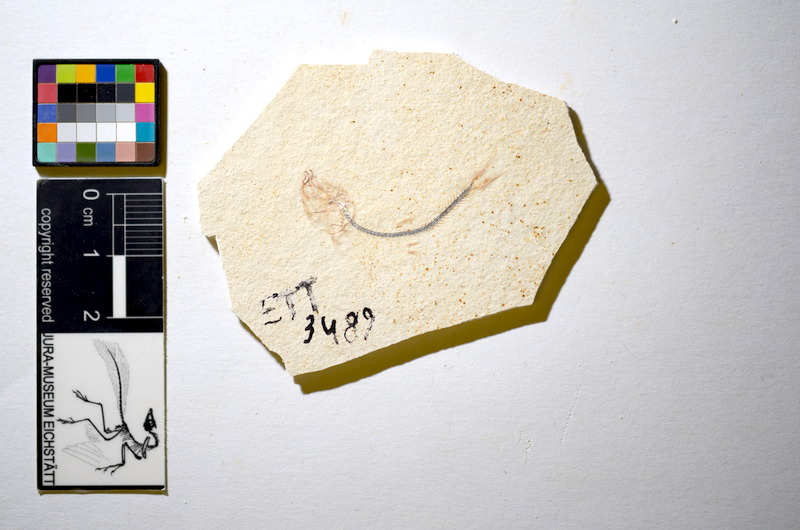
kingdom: Animalia
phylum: Chordata
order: Salmoniformes
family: Orthogonikleithridae
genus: Orthogonikleithrus
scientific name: Orthogonikleithrus hoelli
